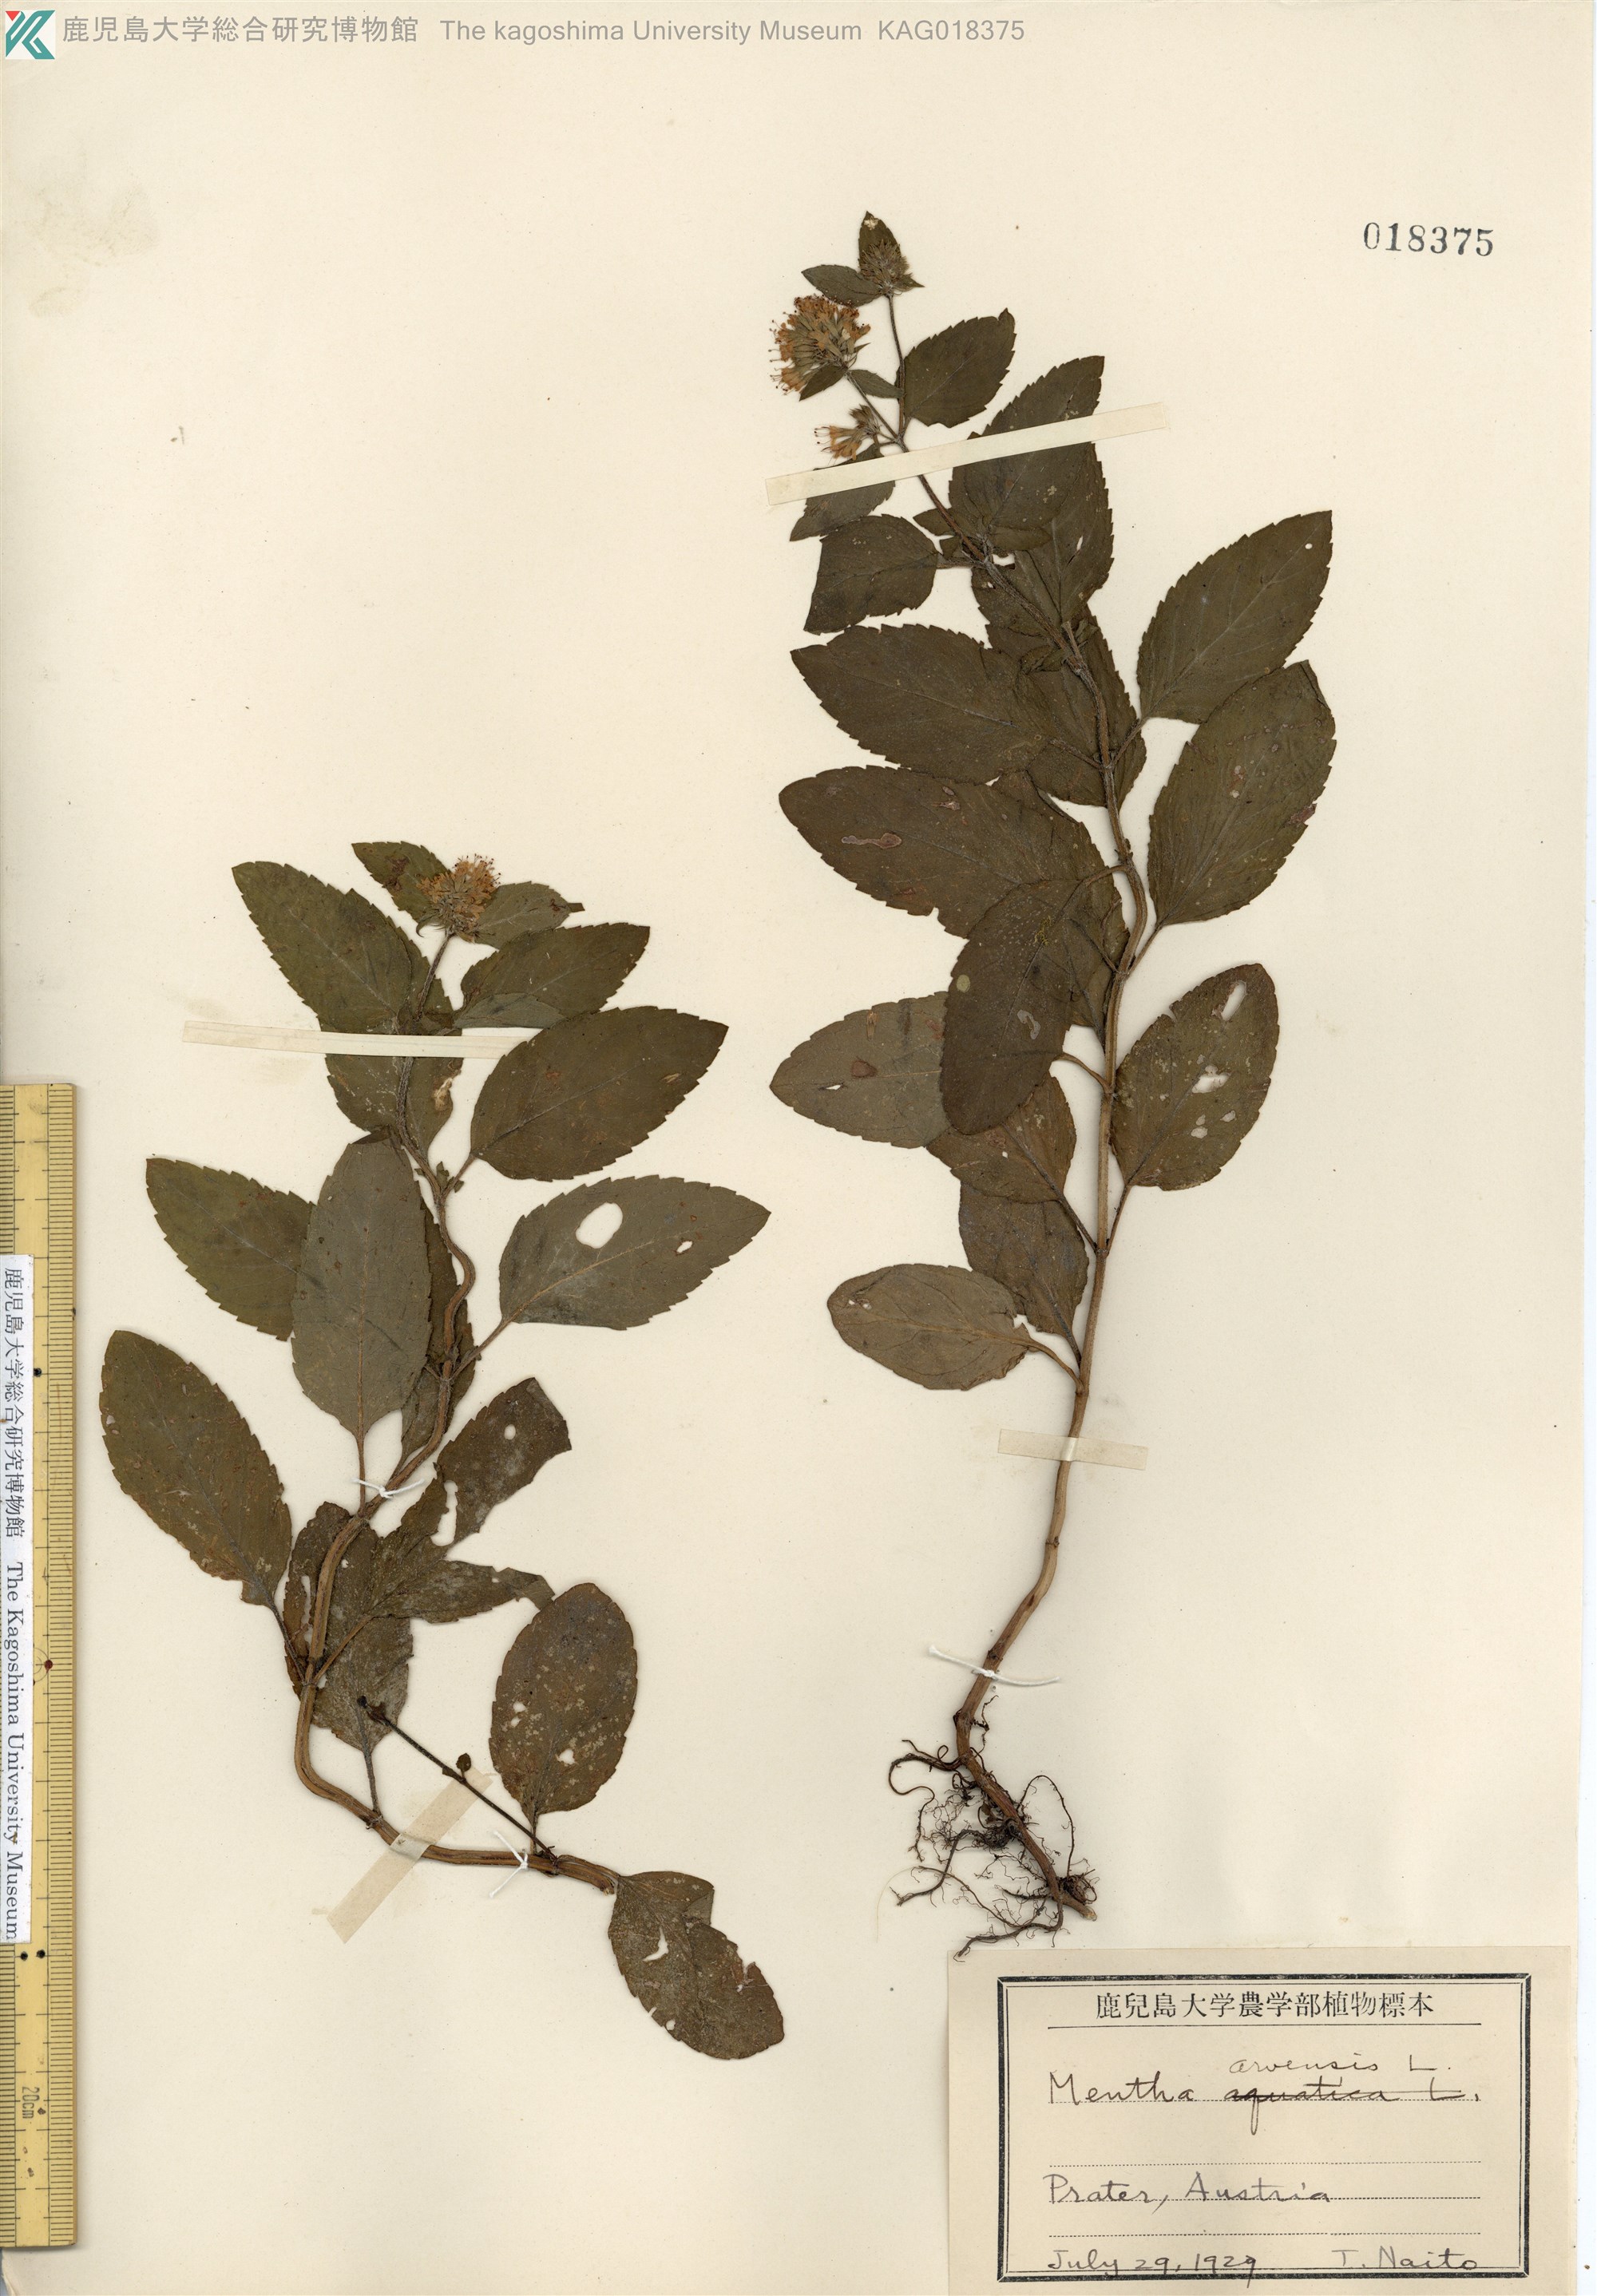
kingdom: Plantae
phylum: Tracheophyta
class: Magnoliopsida
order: Lamiales
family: Lamiaceae
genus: Mentha
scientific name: Mentha canadensis
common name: ハッカ
